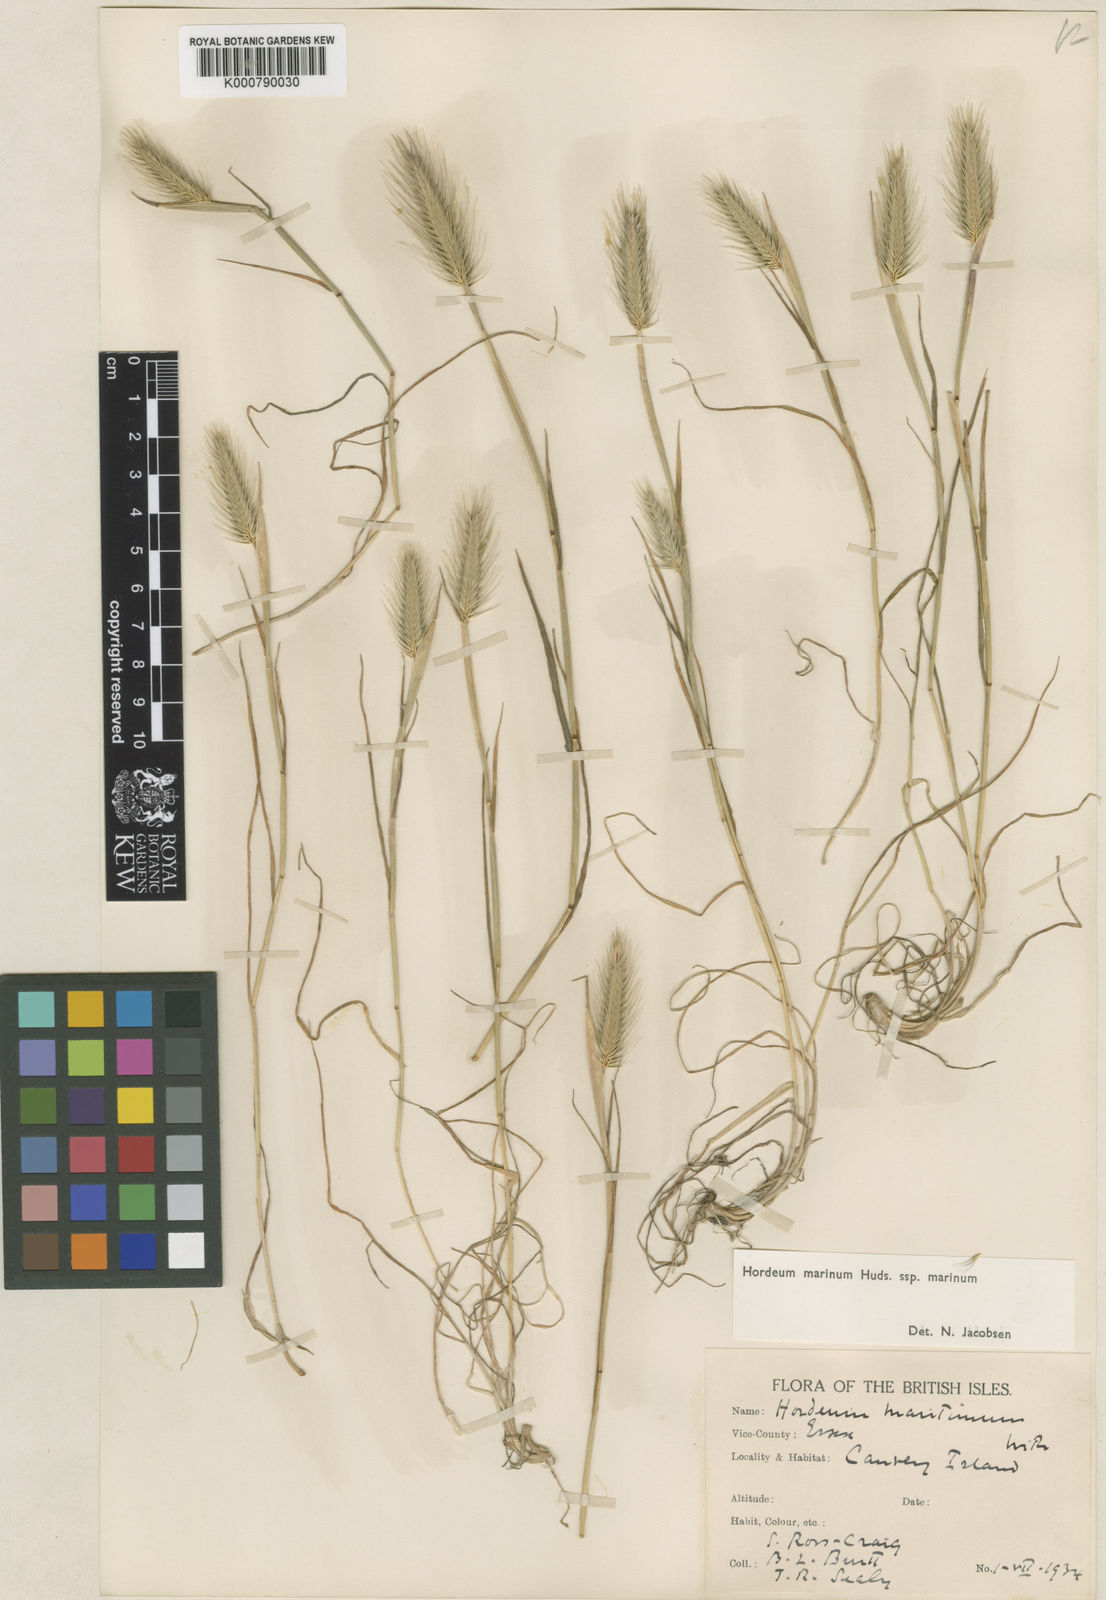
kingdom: Plantae
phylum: Tracheophyta
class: Liliopsida
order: Poales
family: Poaceae
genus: Hordeum
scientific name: Hordeum marinum
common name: Sea barley
